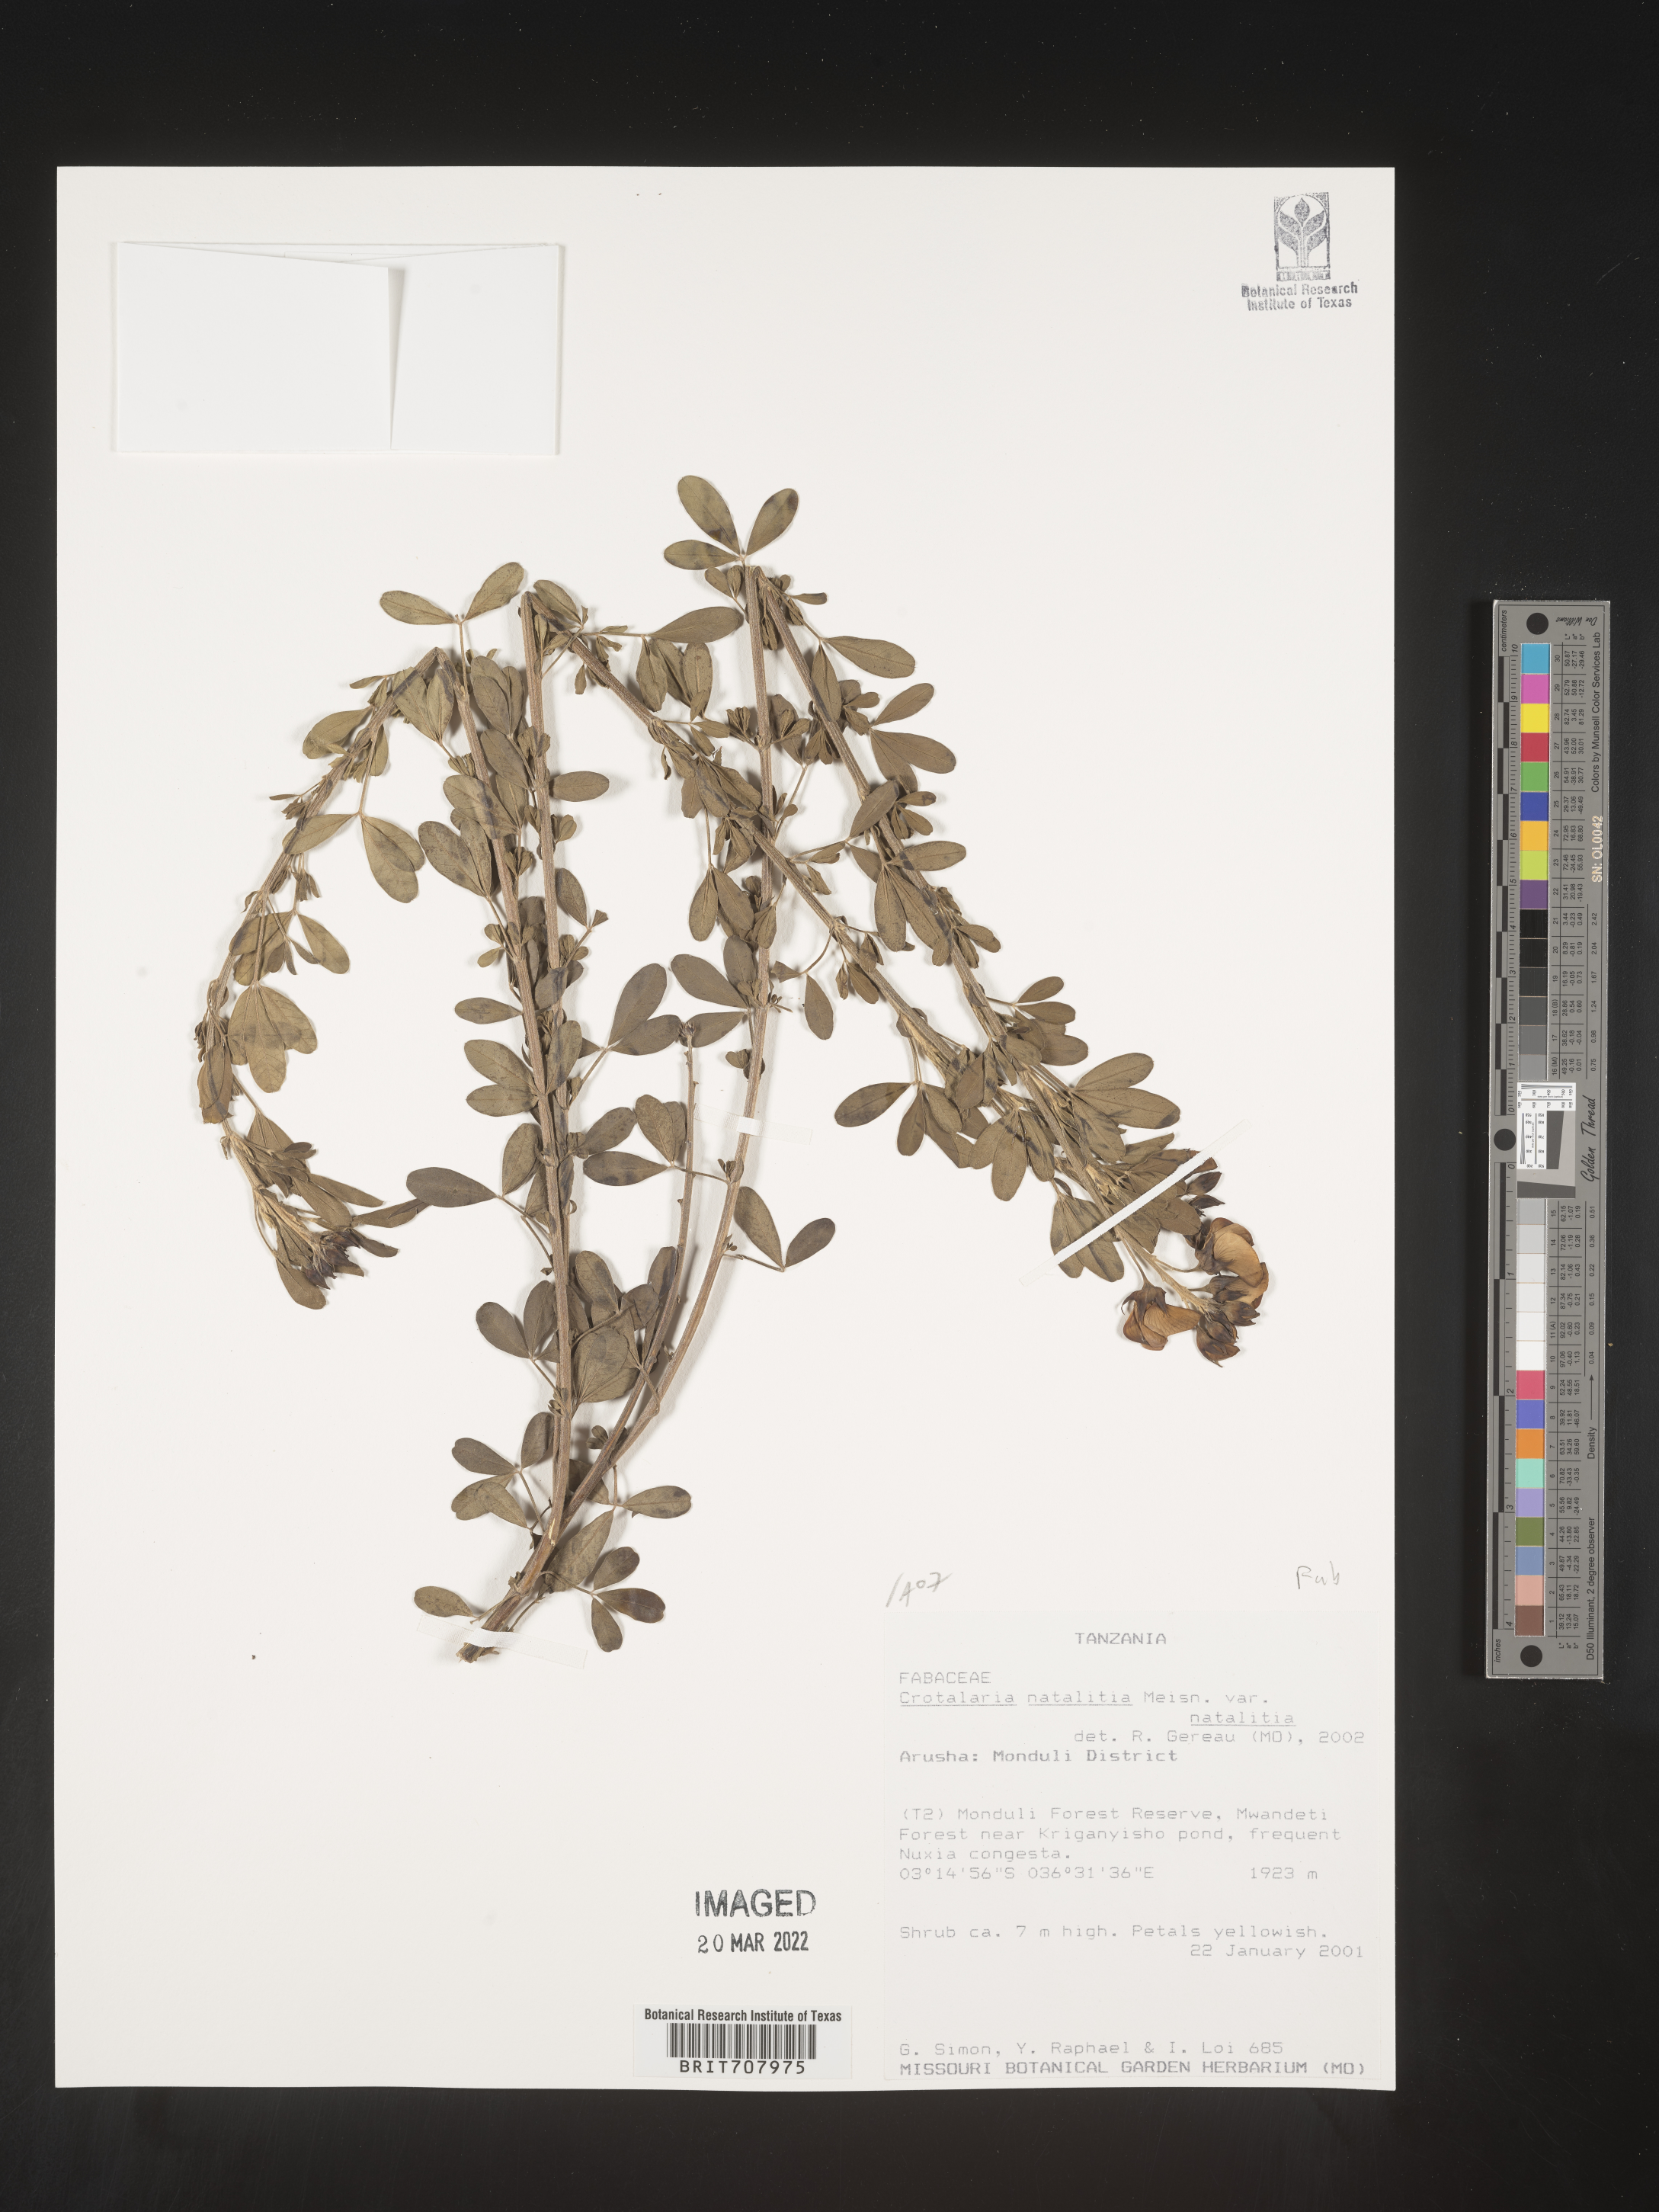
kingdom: Plantae
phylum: Tracheophyta
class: Magnoliopsida
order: Fabales
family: Fabaceae
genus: Crotalaria
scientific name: Crotalaria
